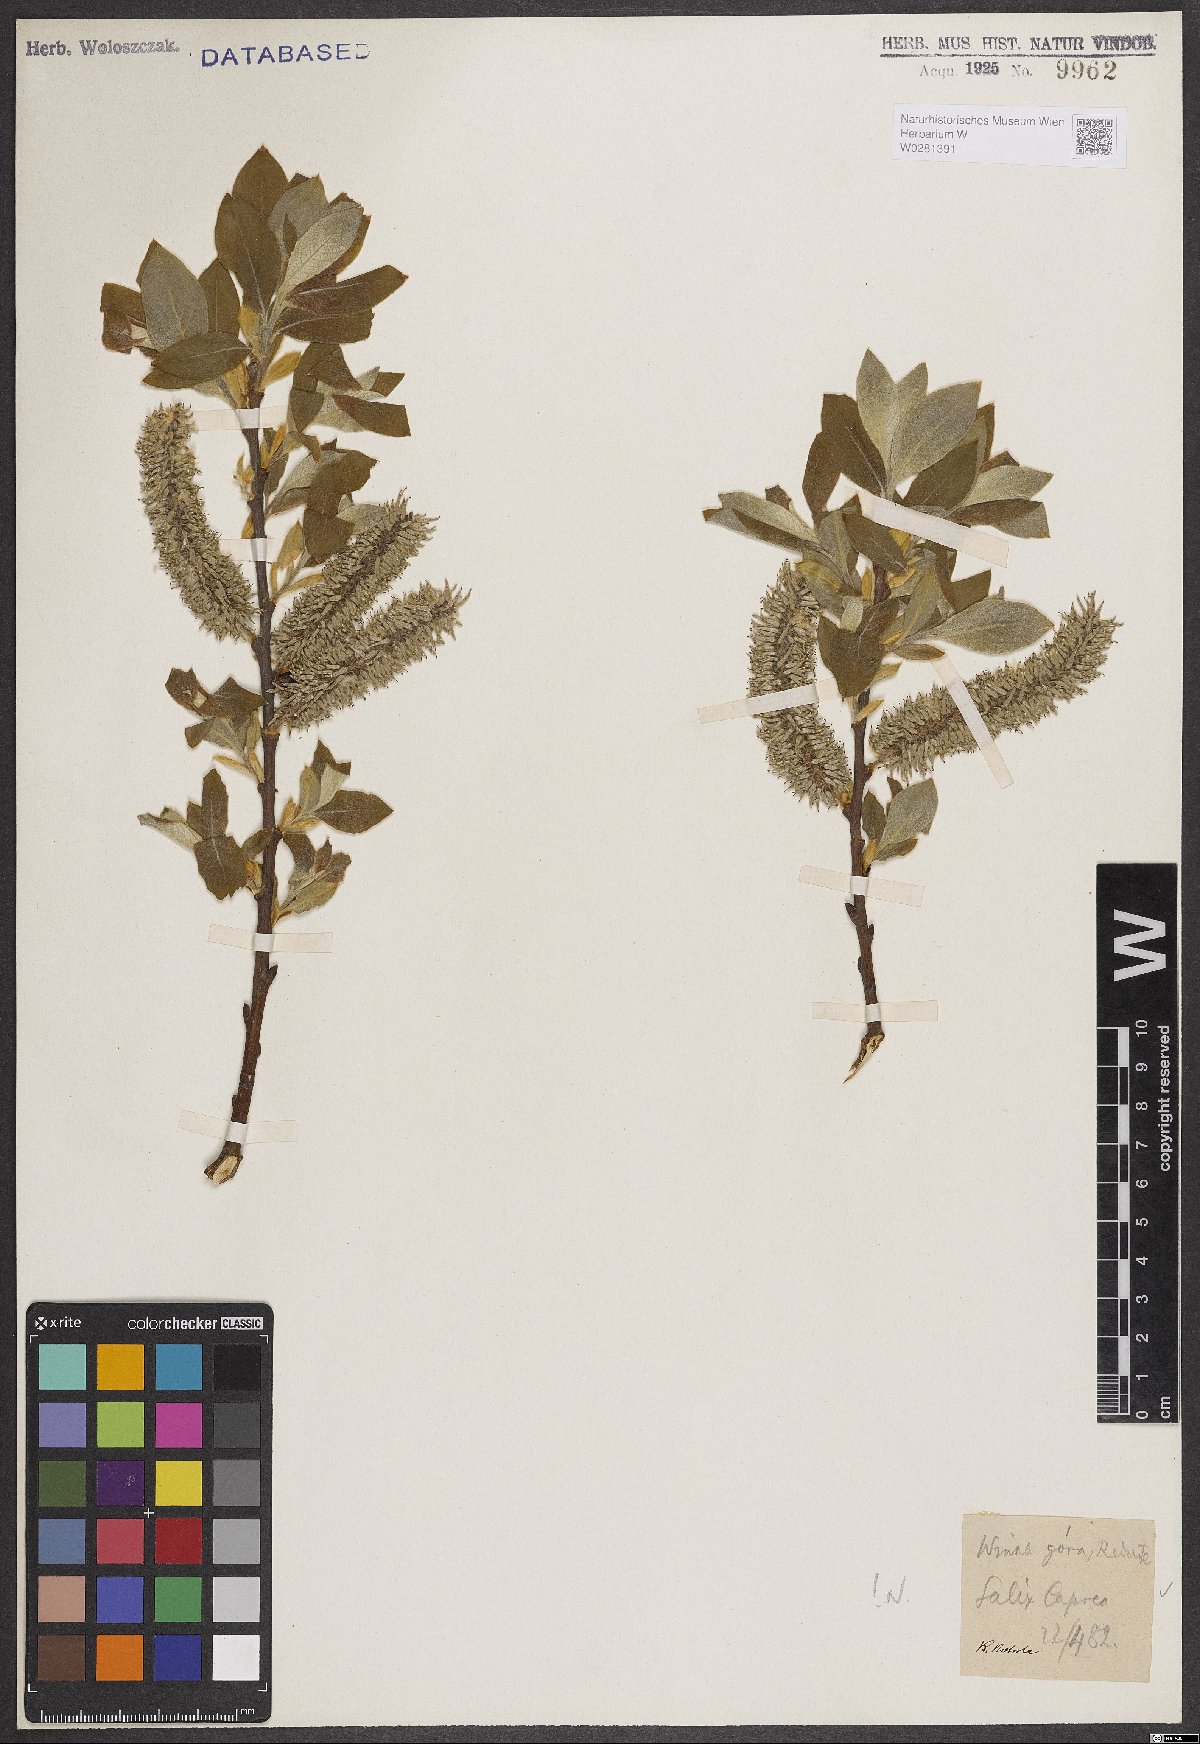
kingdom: Plantae
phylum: Tracheophyta
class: Magnoliopsida
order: Malpighiales
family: Salicaceae
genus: Salix
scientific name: Salix caprea
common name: Goat willow
